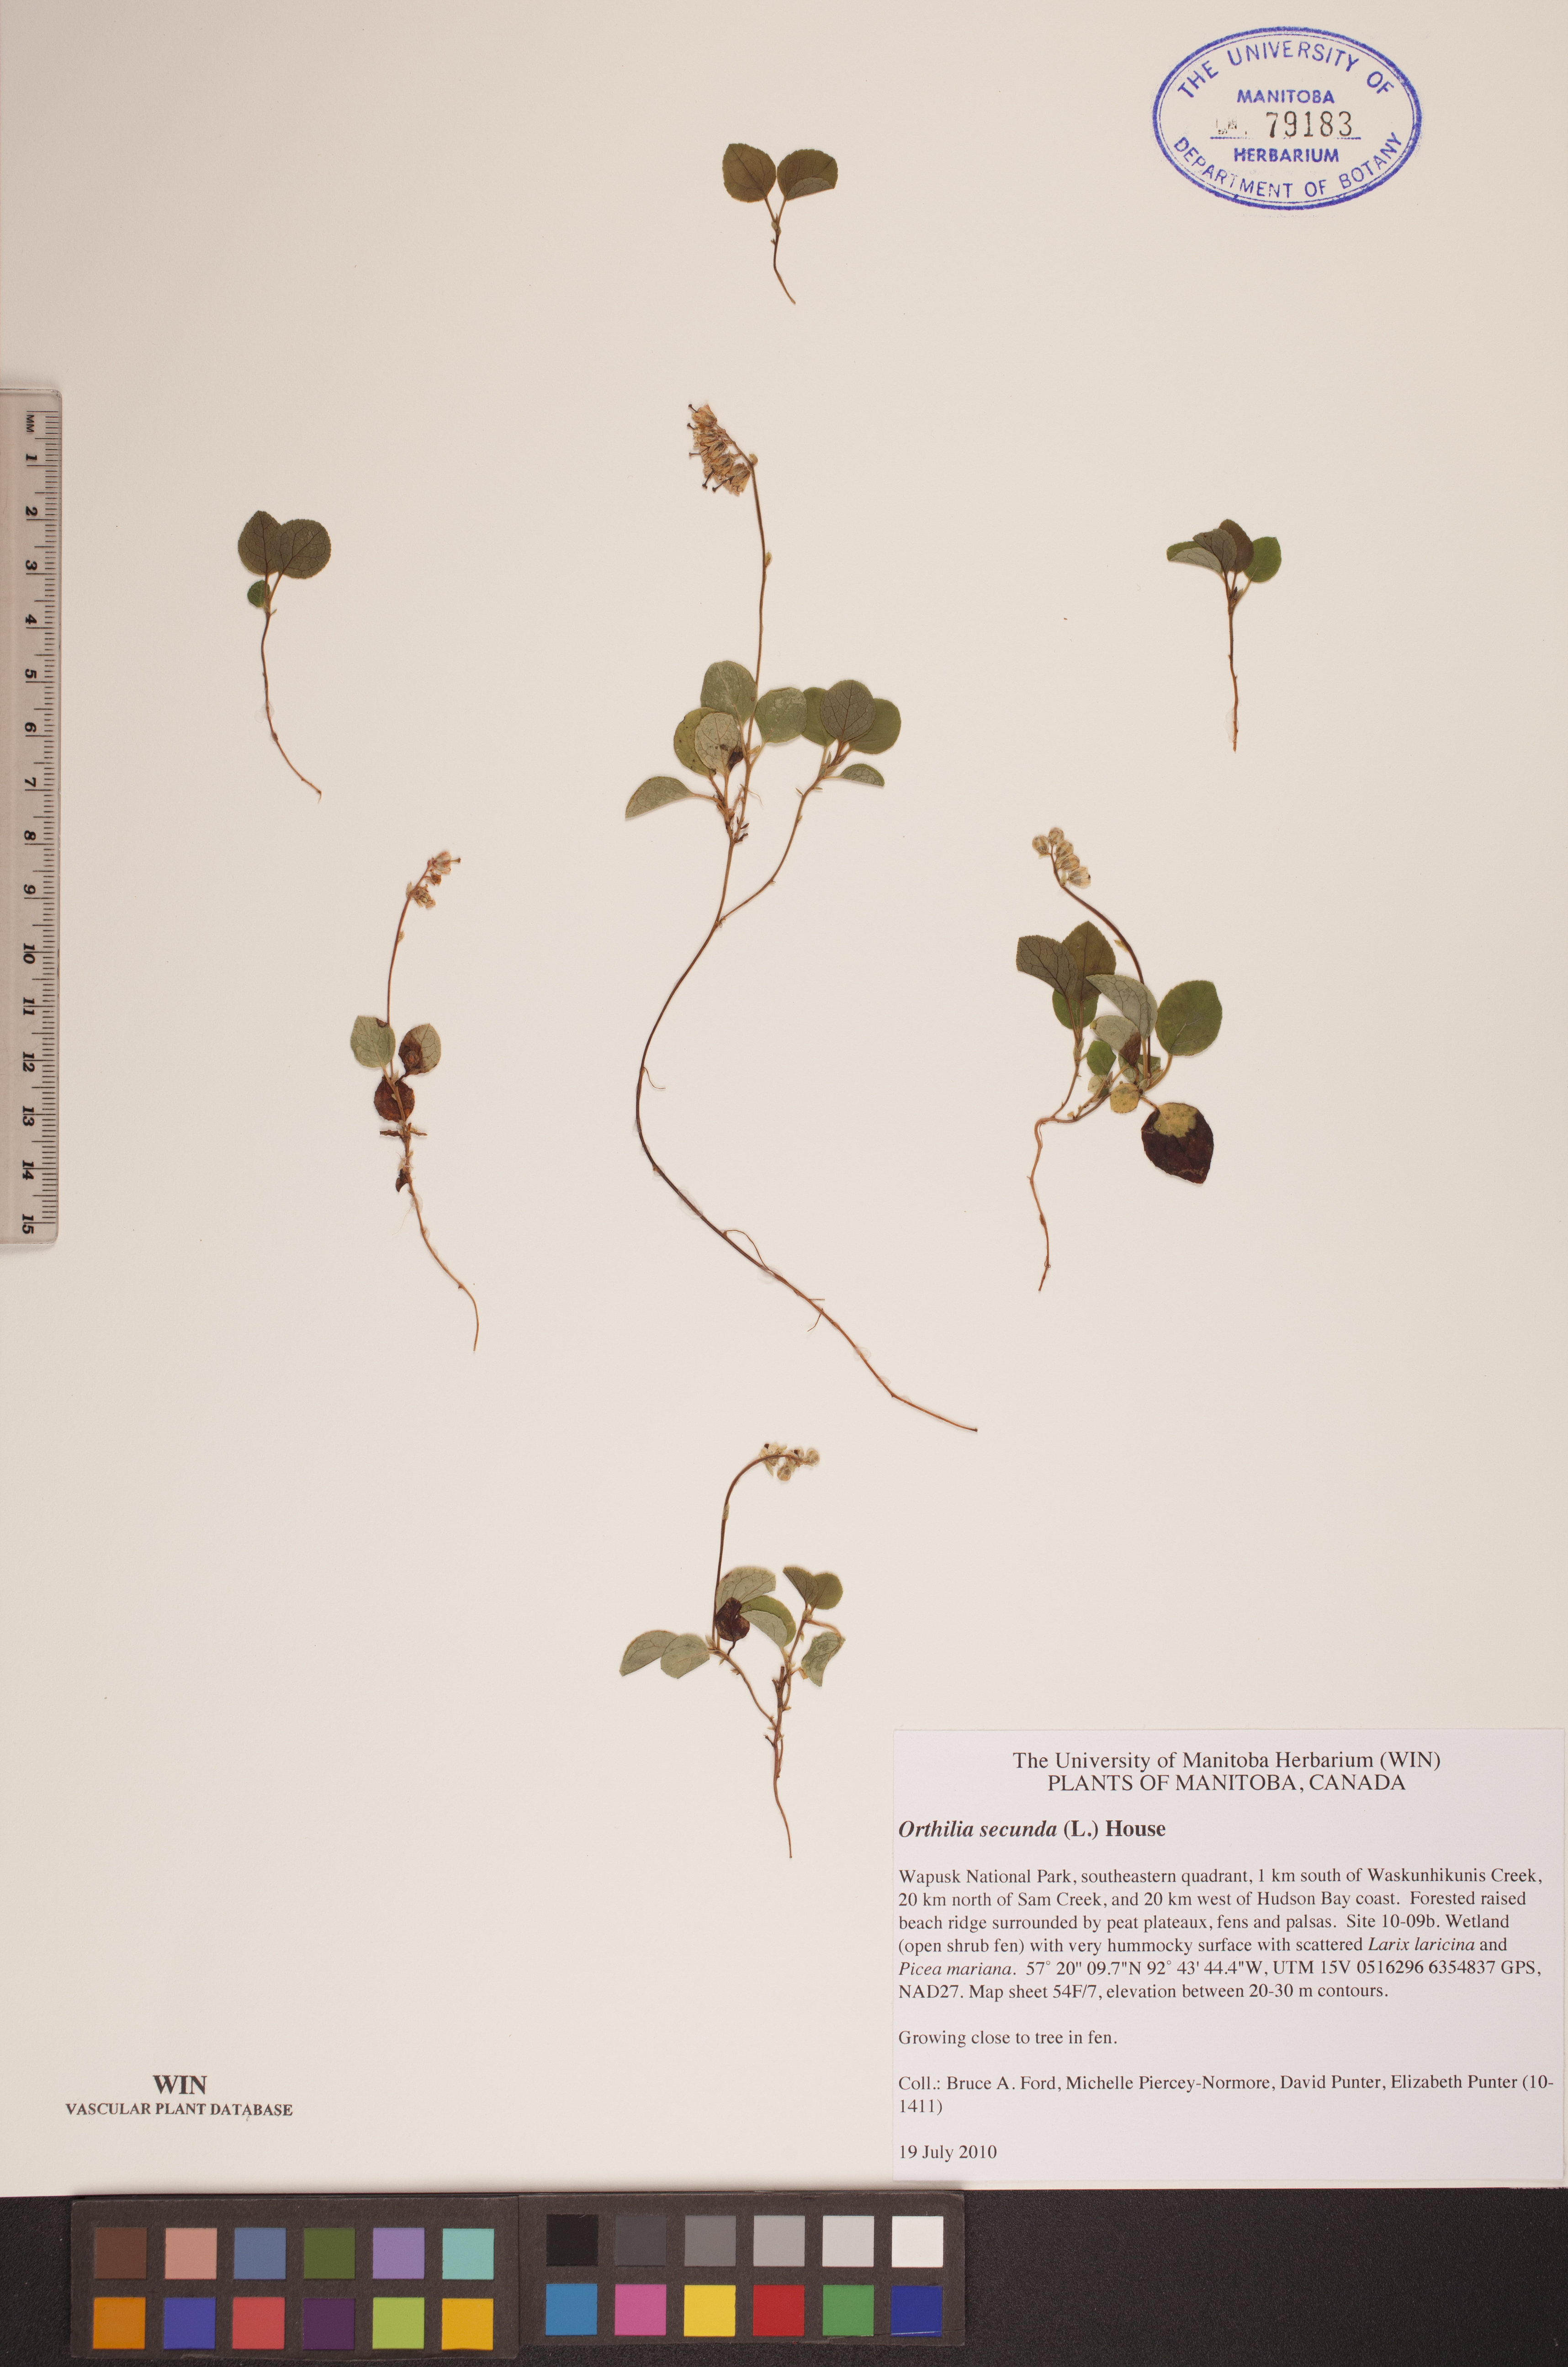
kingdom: Plantae
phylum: Tracheophyta
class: Magnoliopsida
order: Ericales
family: Ericaceae
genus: Orthilia
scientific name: Orthilia secunda
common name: One-sided orthilia
